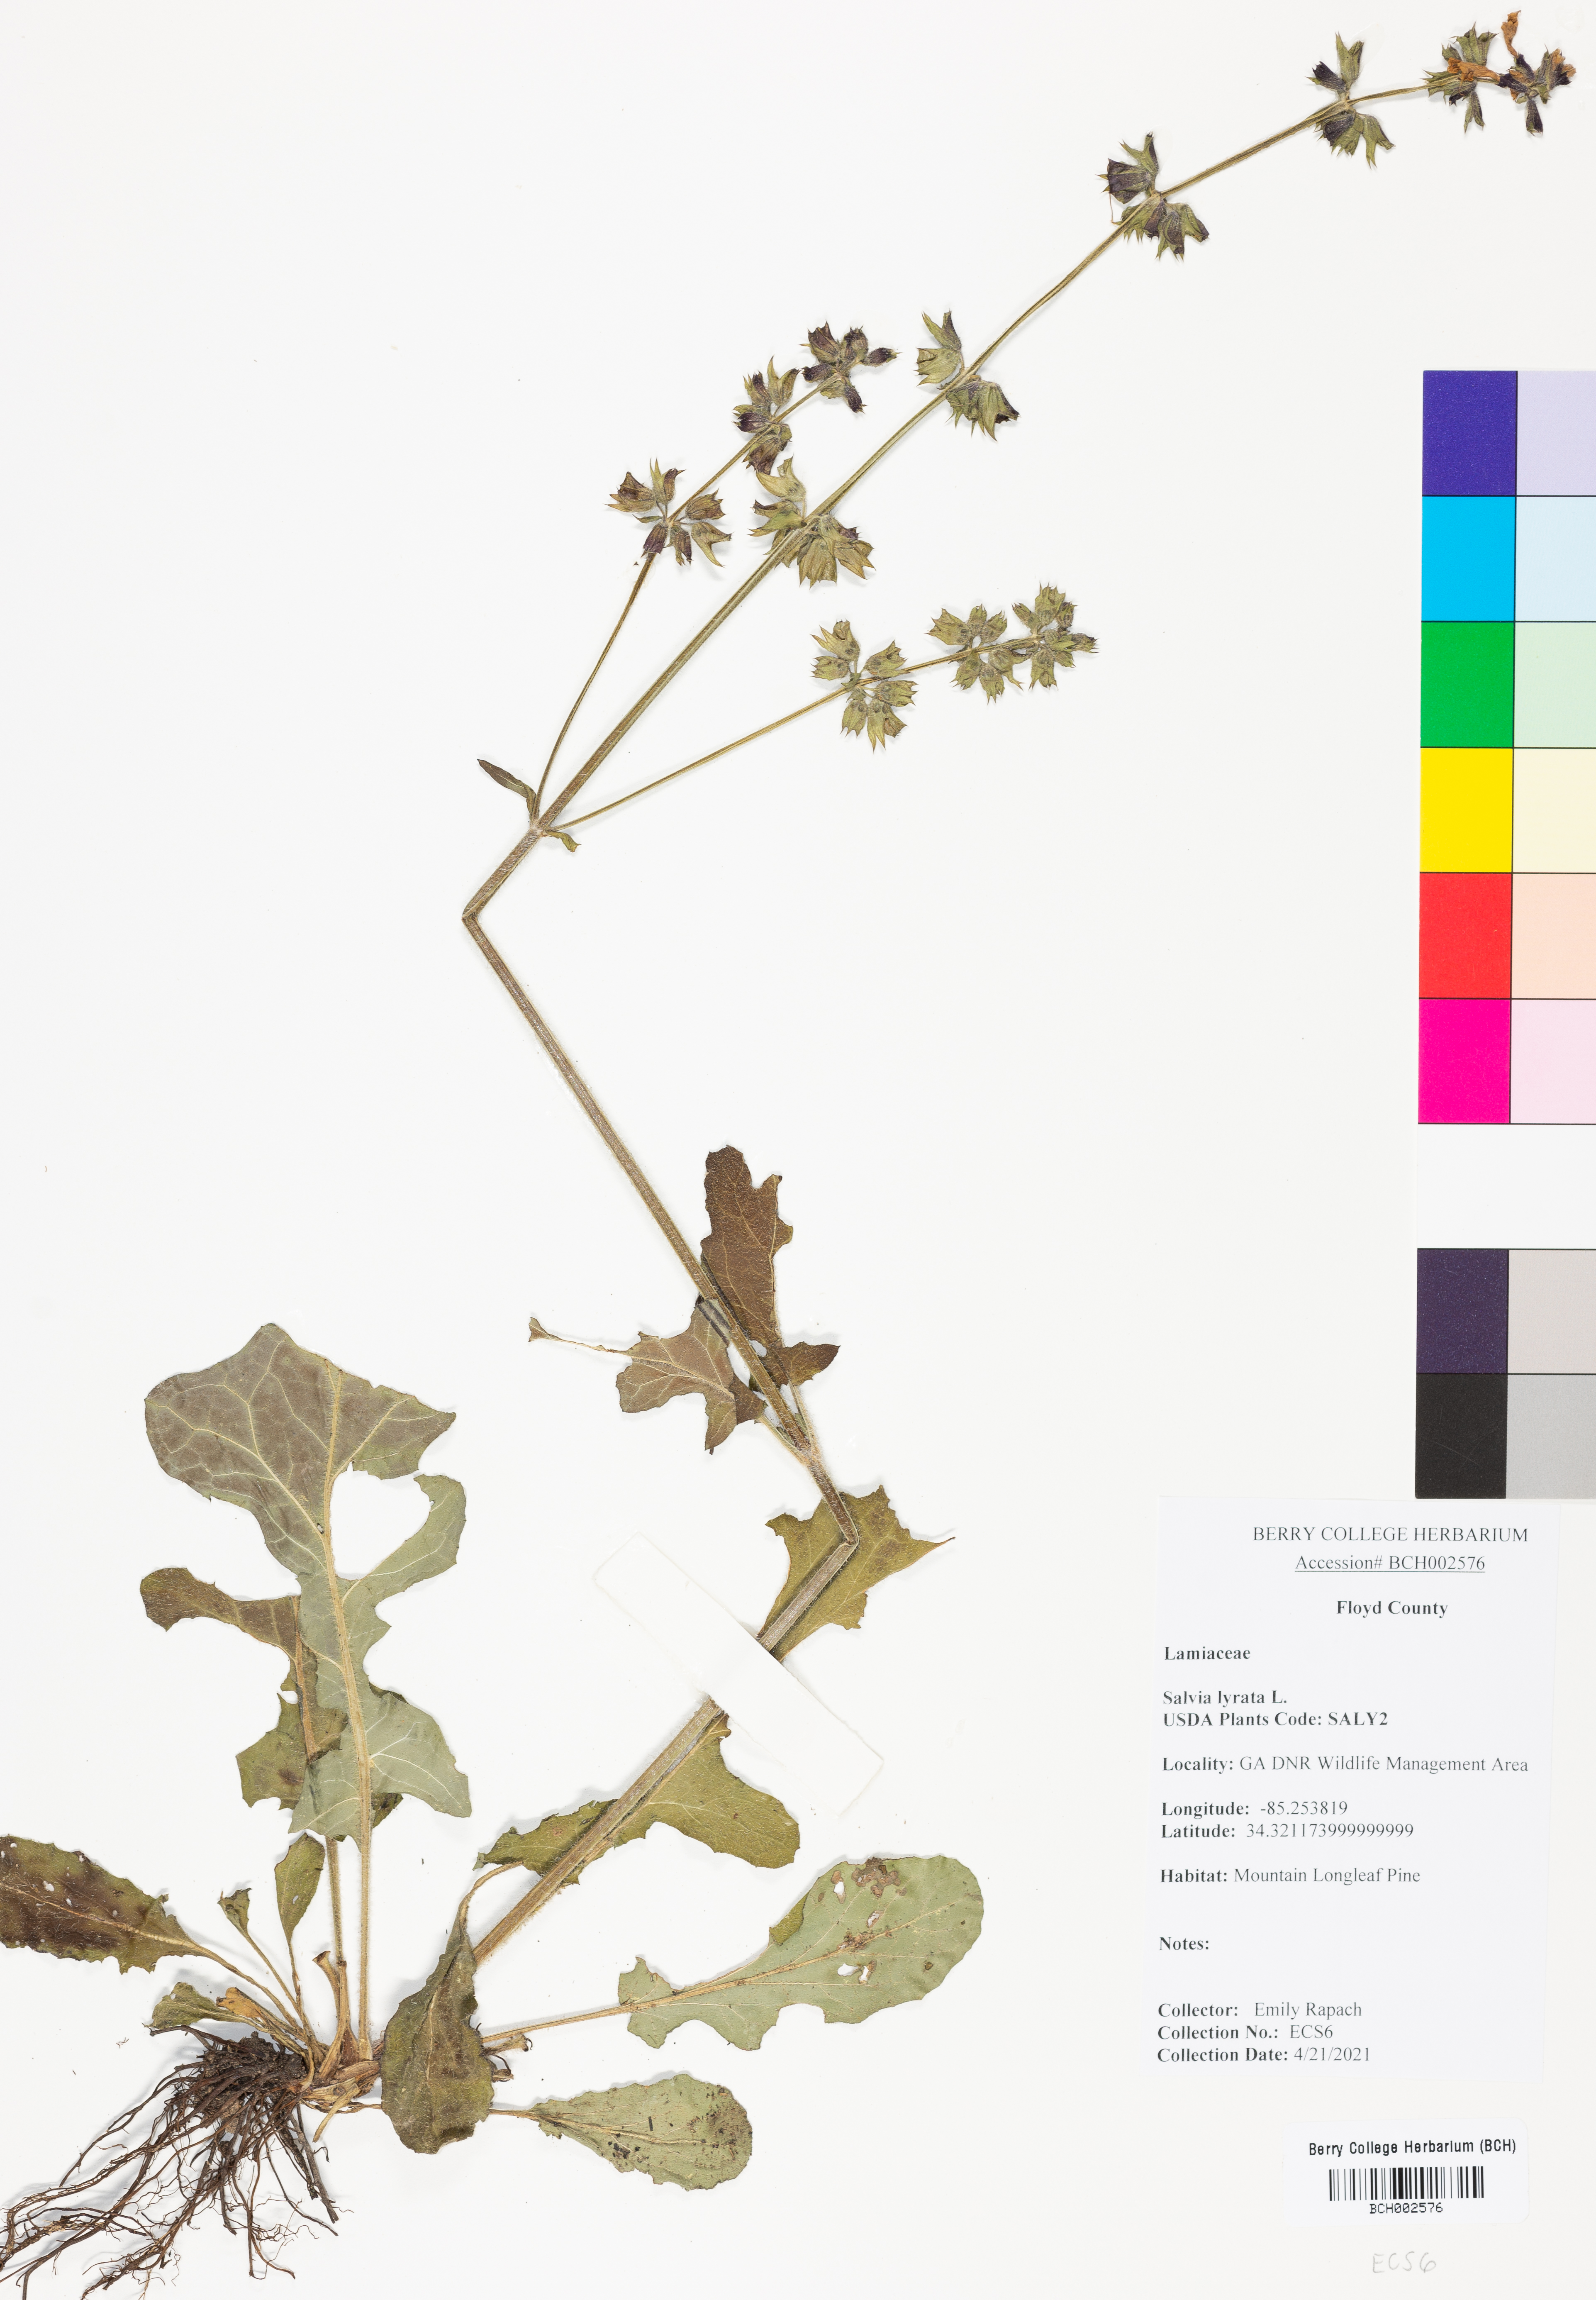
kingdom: Plantae
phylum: Tracheophyta
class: Magnoliopsida
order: Lamiales
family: Lamiaceae
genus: Salvia
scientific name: Salvia lyrata
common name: Cancerweed
